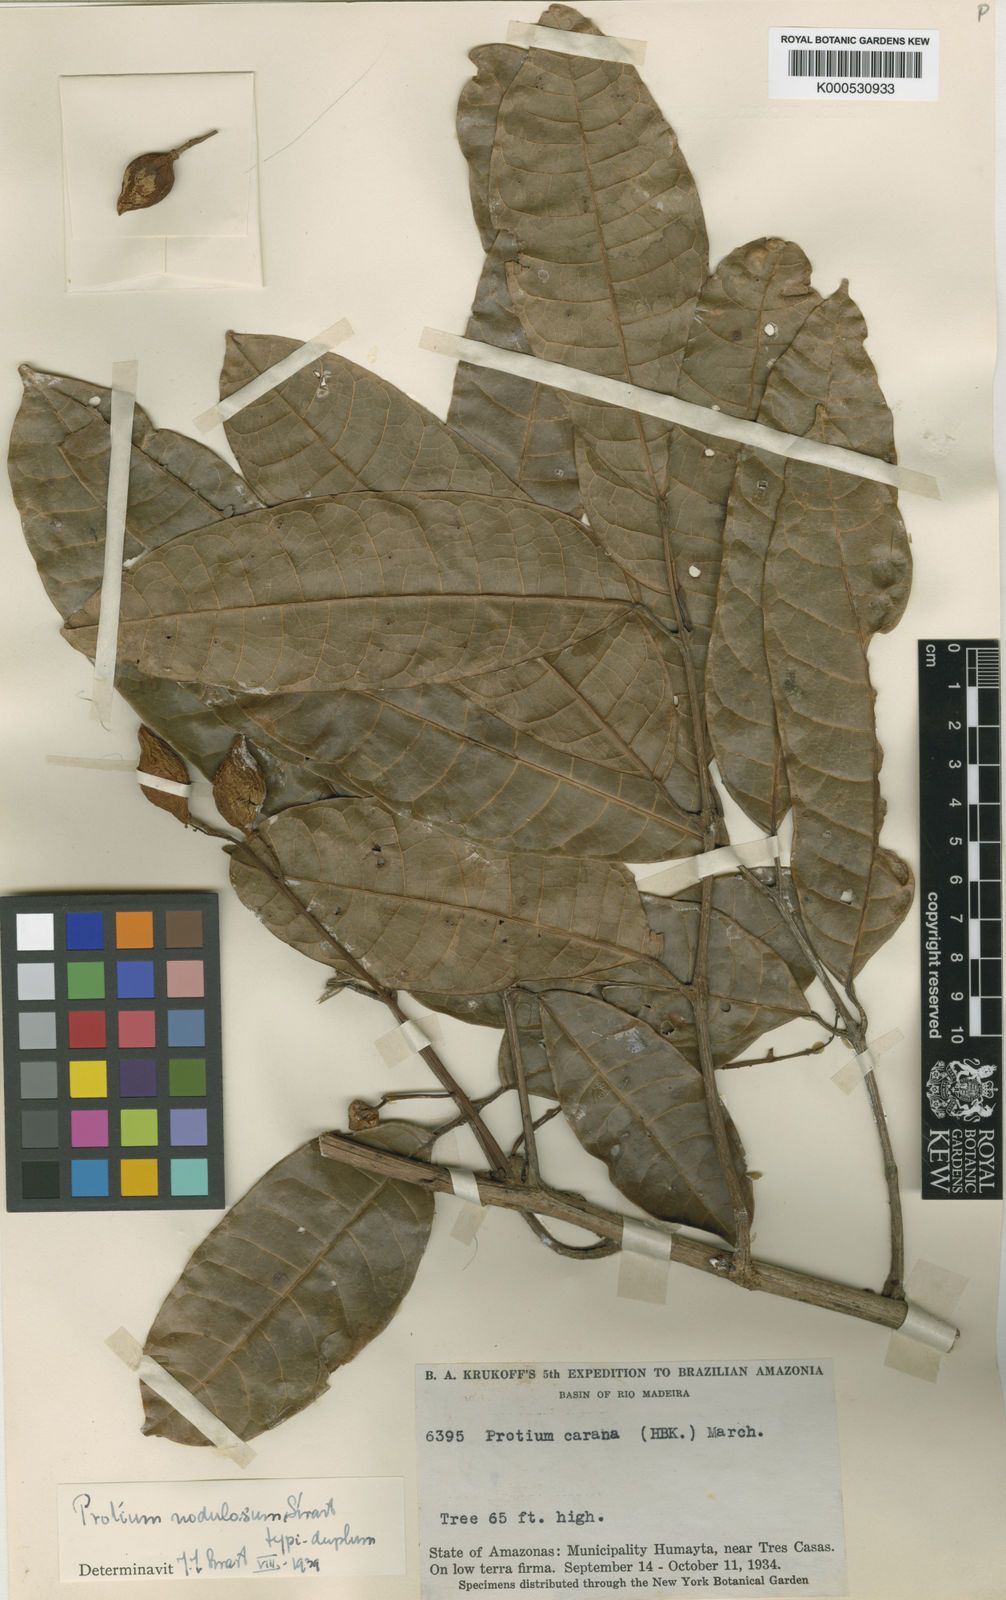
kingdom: Plantae
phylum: Tracheophyta
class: Magnoliopsida
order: Sapindales
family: Burseraceae
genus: Protium
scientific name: Protium nodulosum
